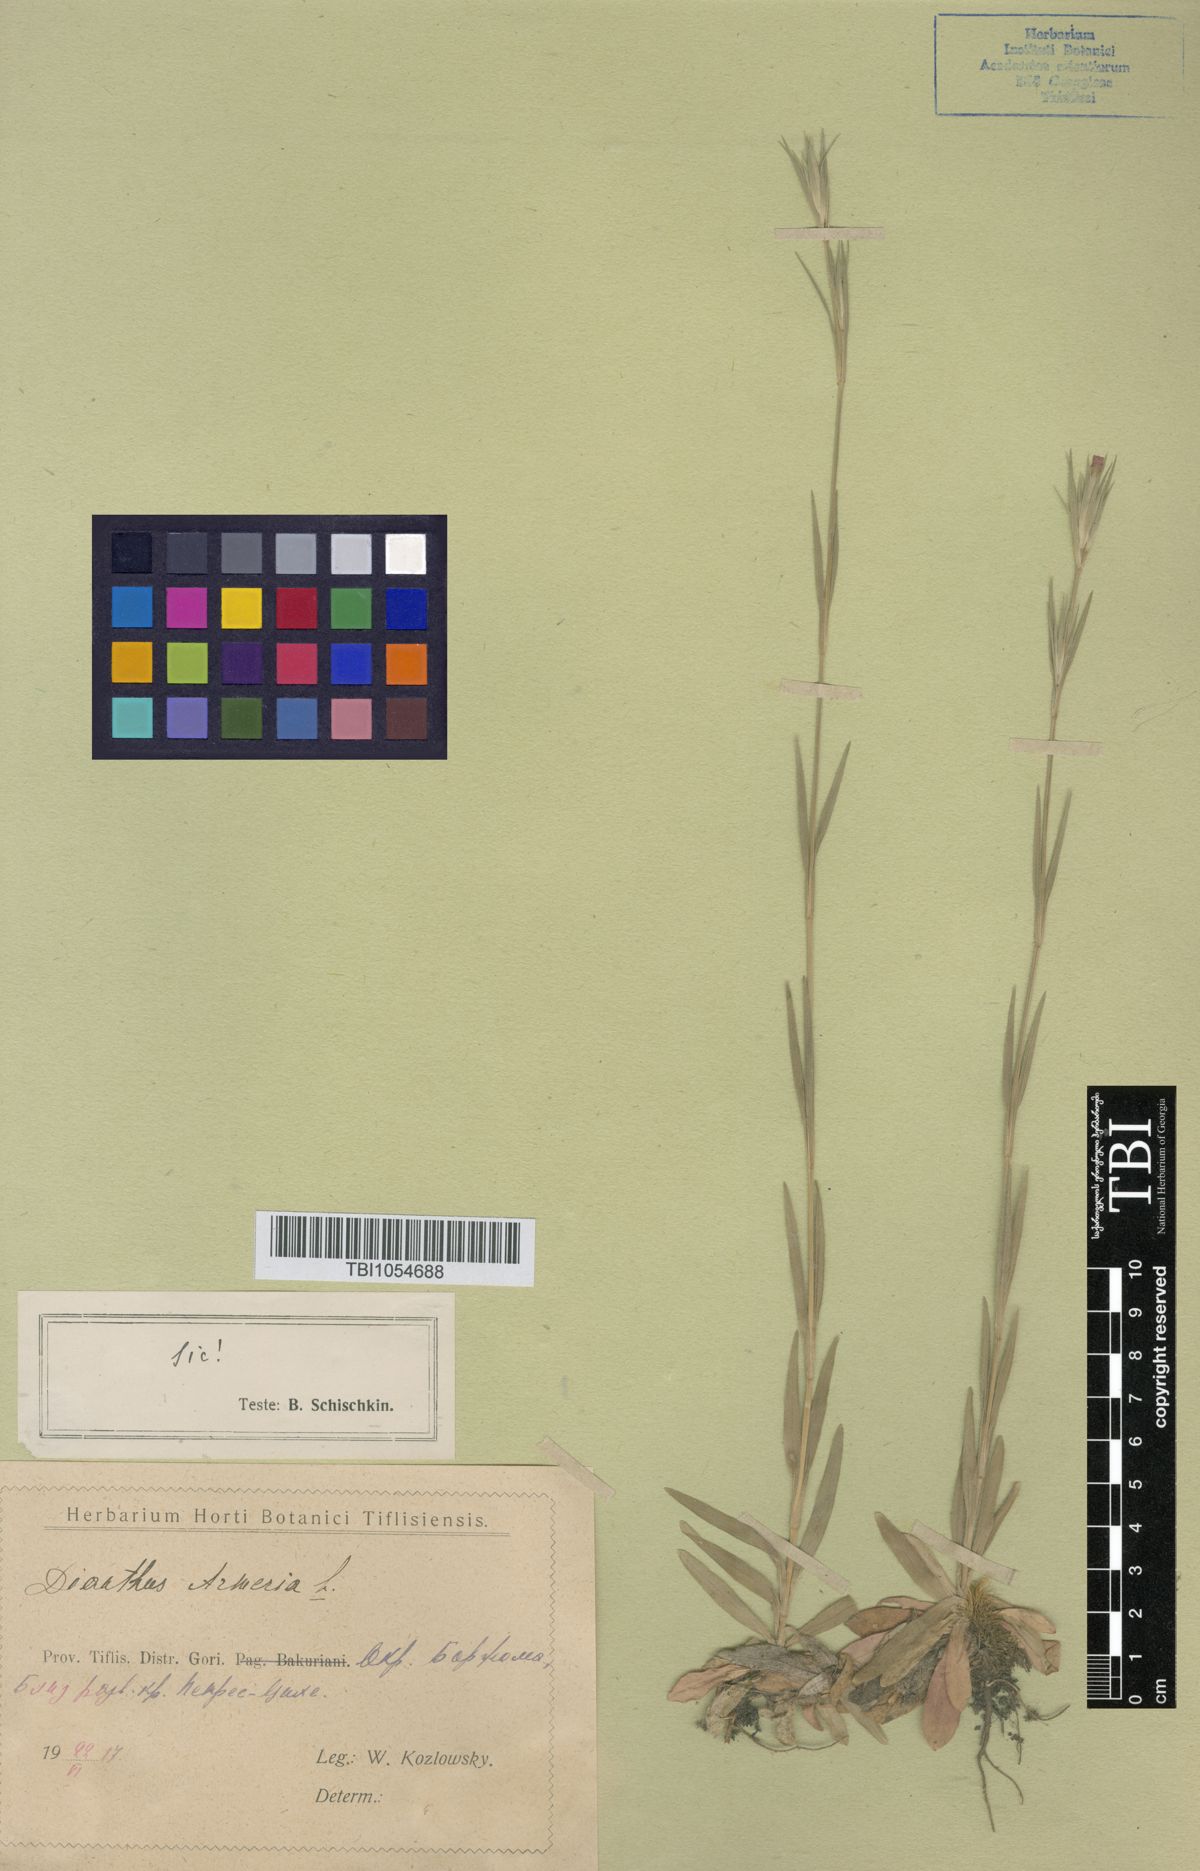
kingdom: Plantae
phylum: Tracheophyta
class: Magnoliopsida
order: Caryophyllales
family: Caryophyllaceae
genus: Dianthus
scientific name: Dianthus armeria
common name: Deptford pink
